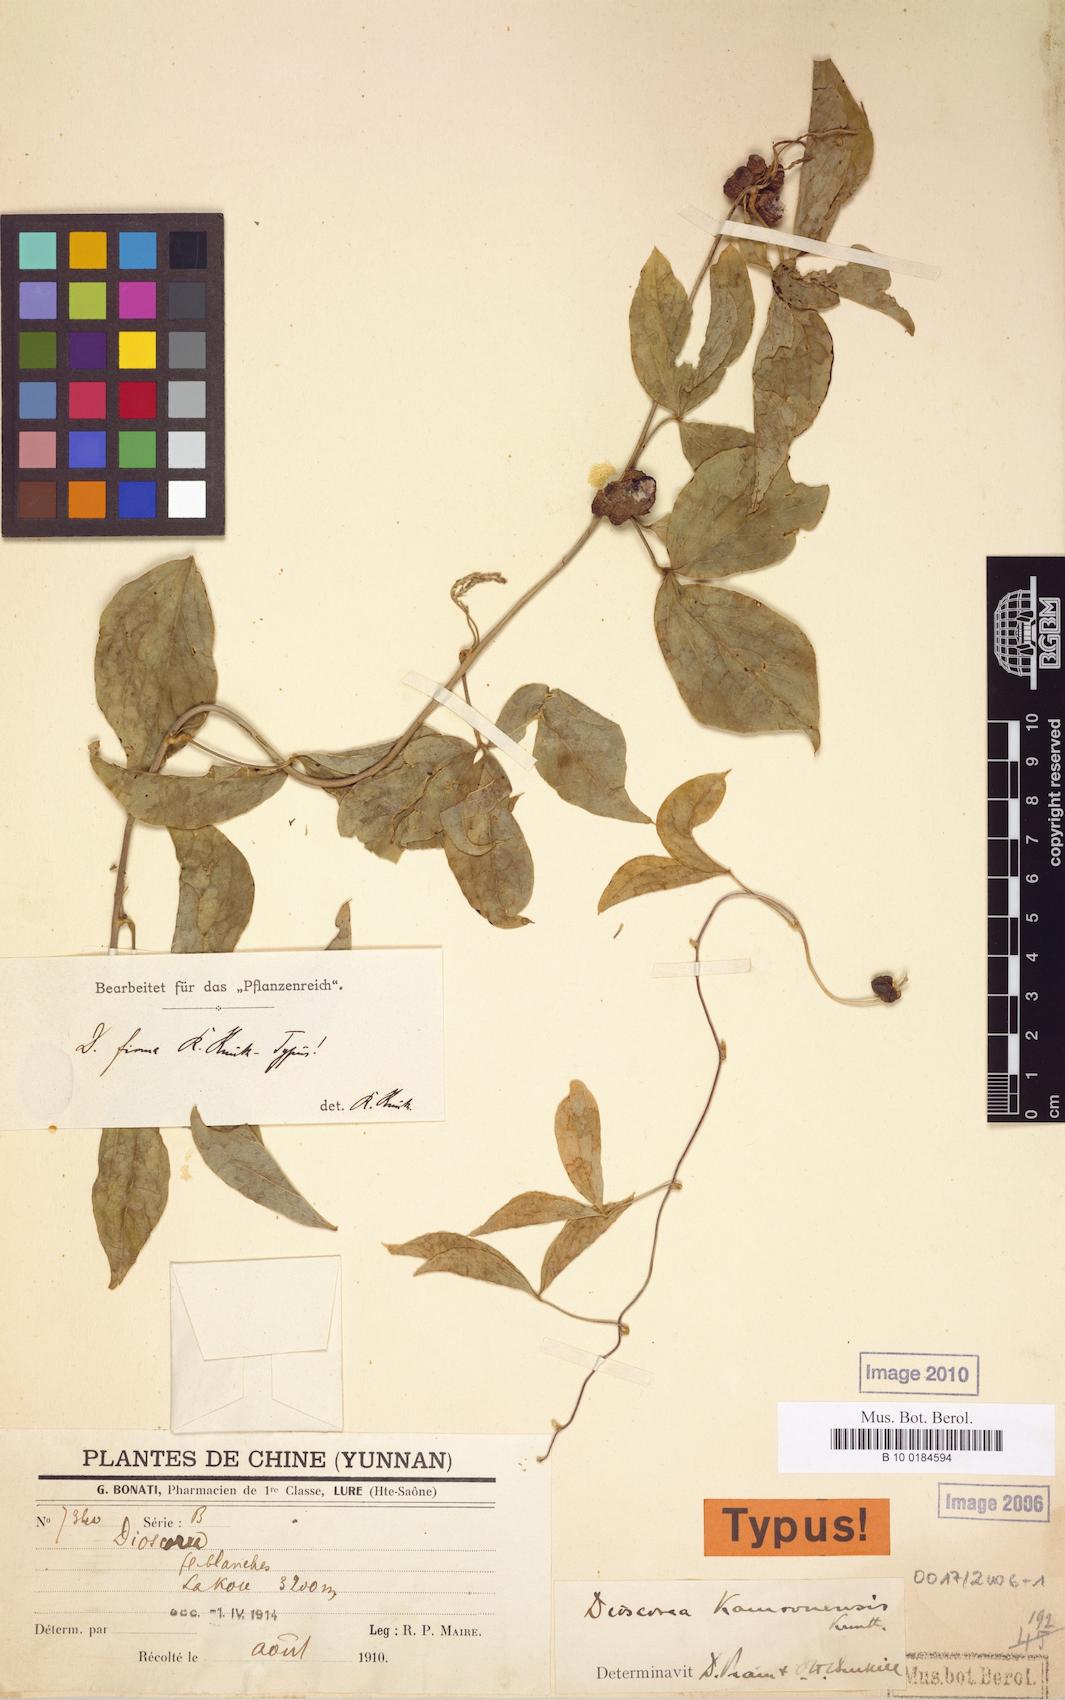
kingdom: Plantae
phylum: Tracheophyta
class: Liliopsida
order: Dioscoreales
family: Dioscoreaceae
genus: Dioscorea
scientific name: Dioscorea kamoonensis
